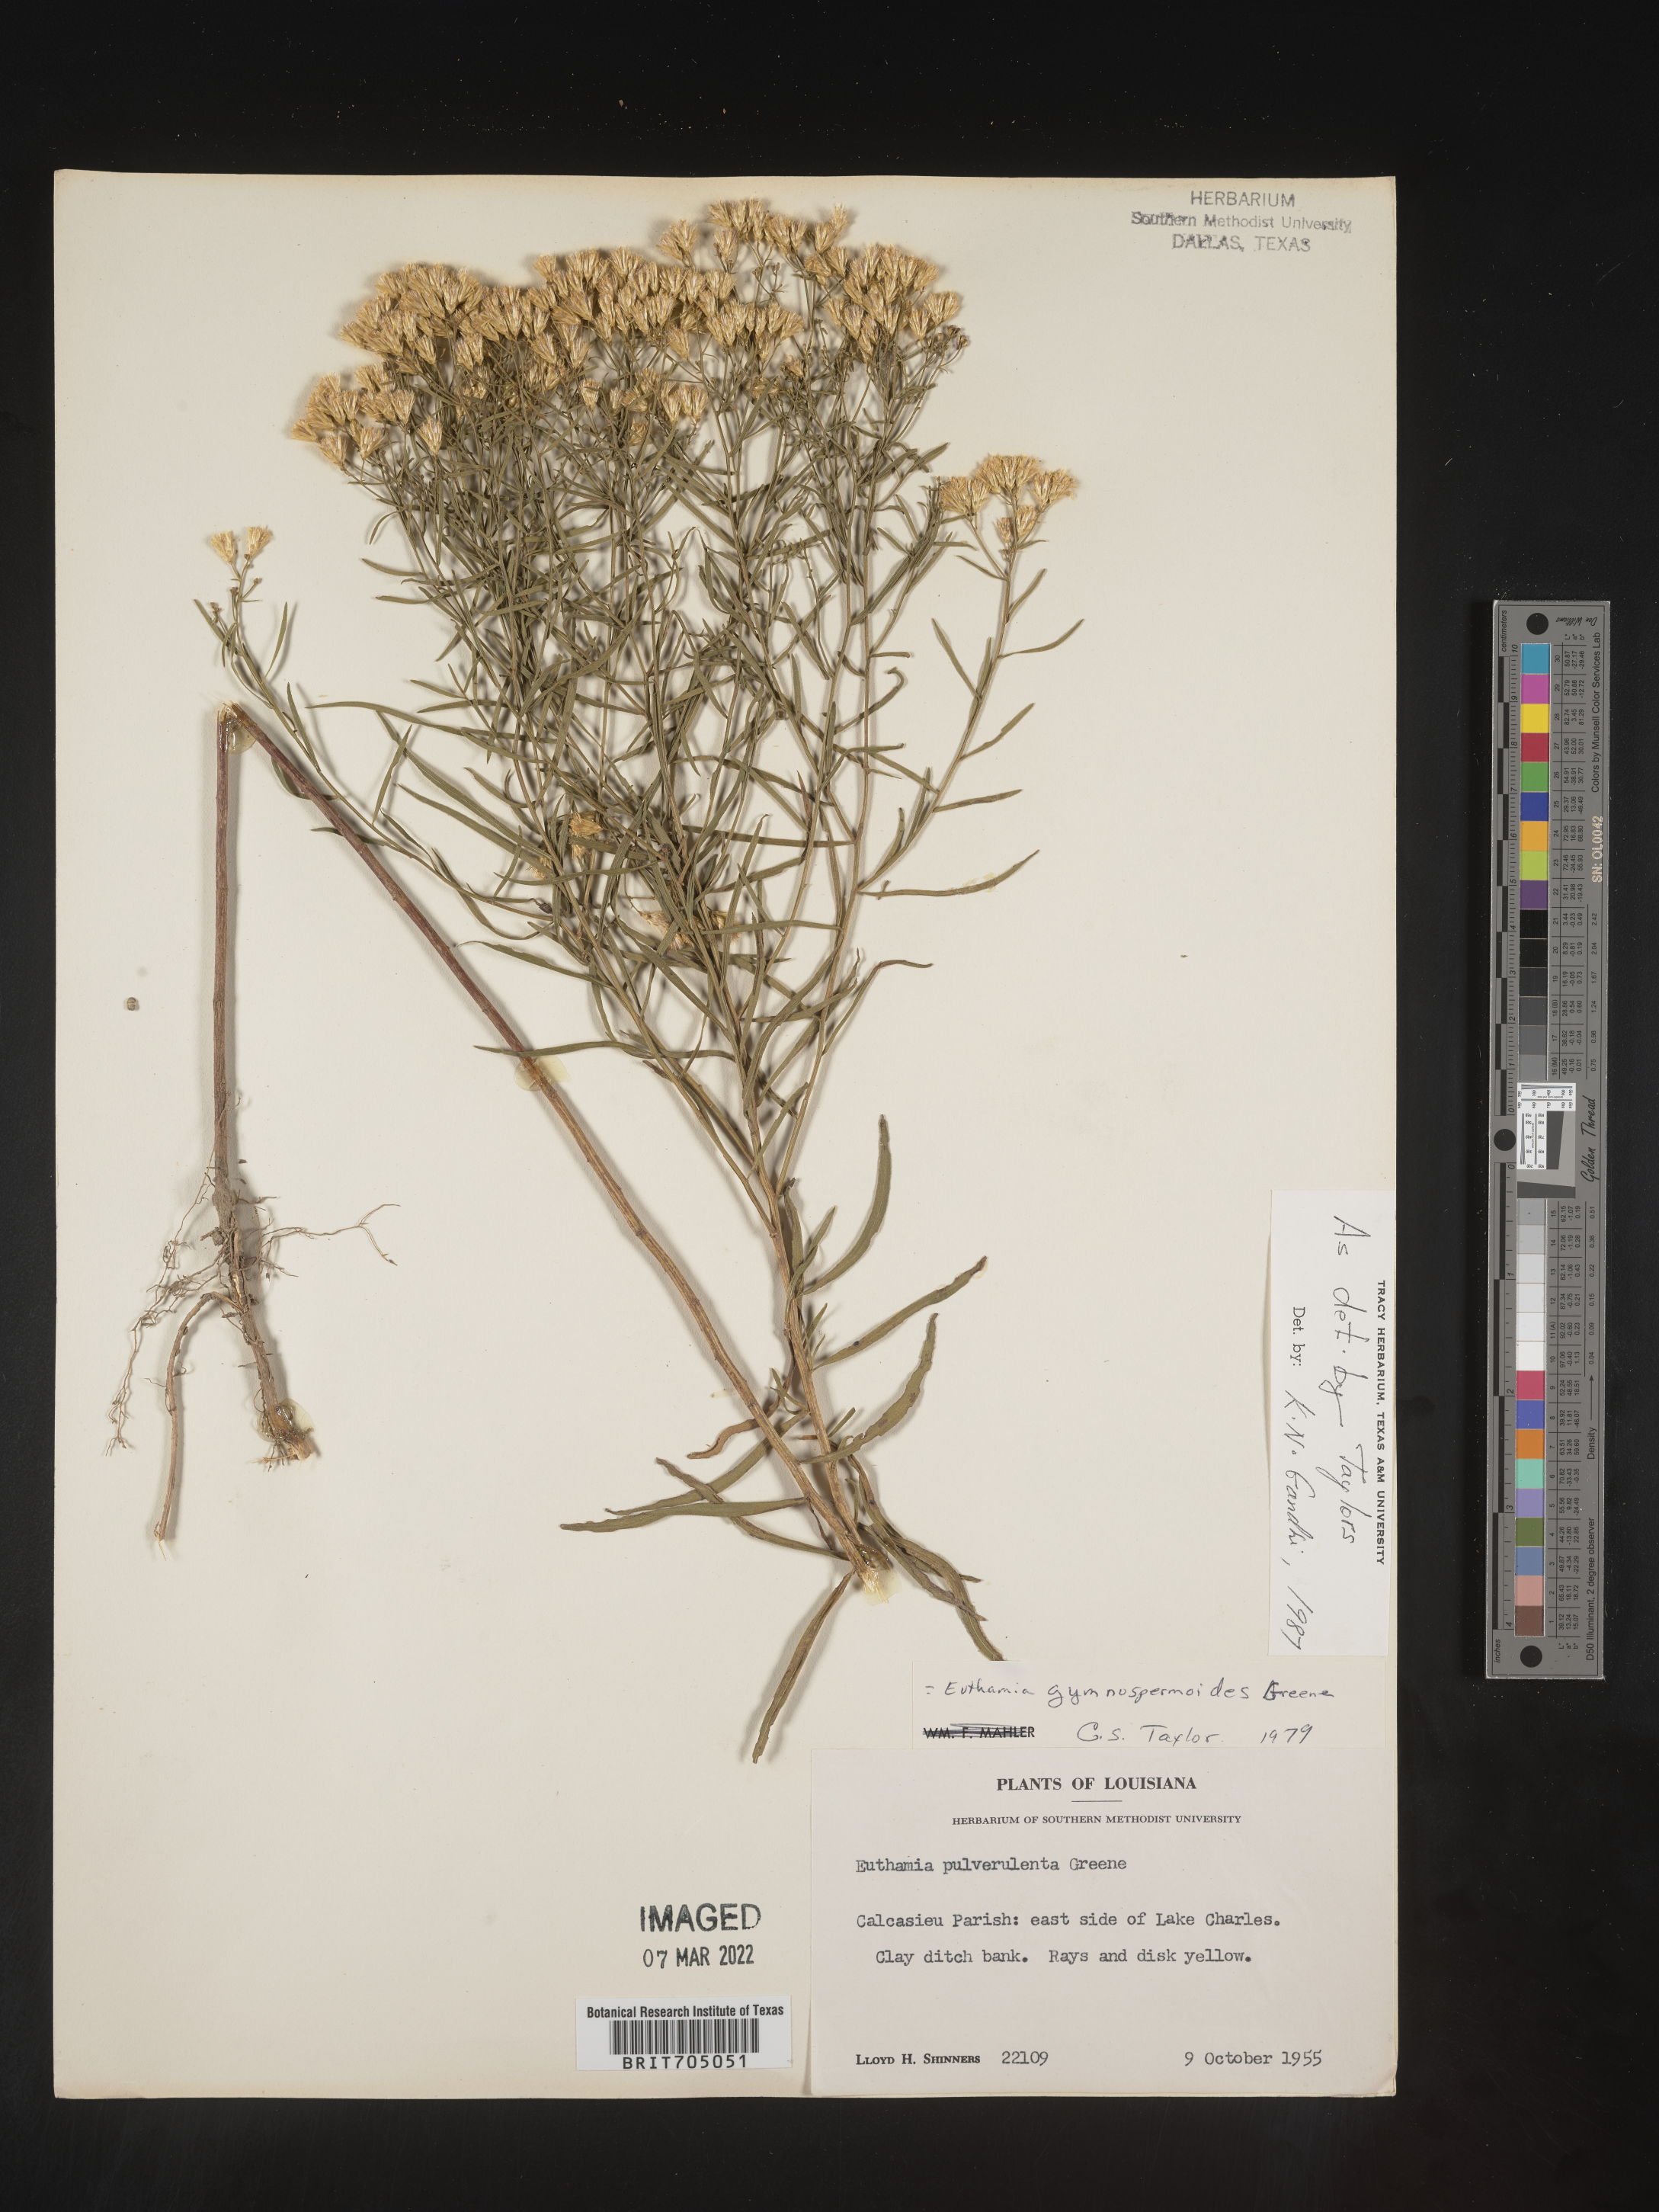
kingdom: Plantae
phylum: Tracheophyta
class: Magnoliopsida
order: Asterales
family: Asteraceae
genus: Euthamia
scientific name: Euthamia gymnospermoides
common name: Great plains goldentop
